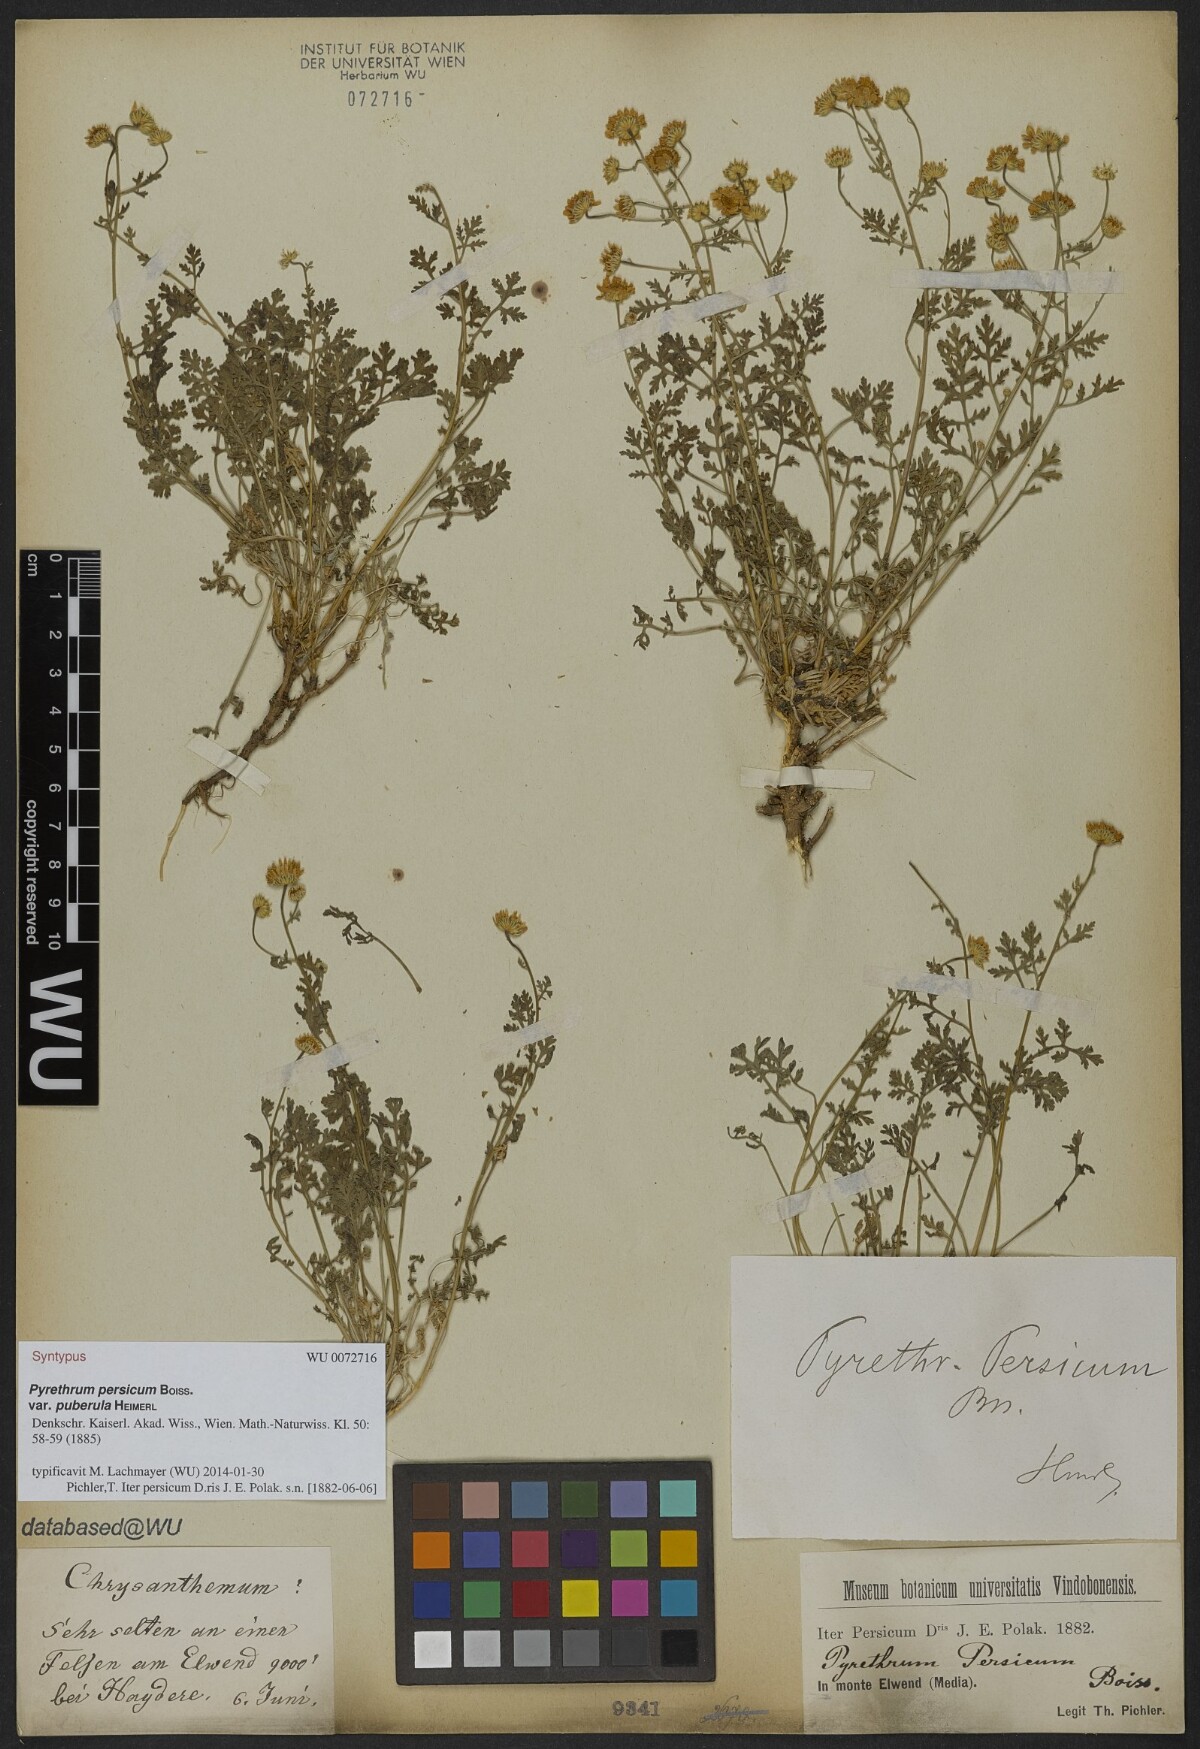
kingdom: Plantae
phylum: Tracheophyta
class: Magnoliopsida
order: Asterales
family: Asteraceae
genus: Tanacetum
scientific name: Tanacetum parthenium
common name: Feverfew
